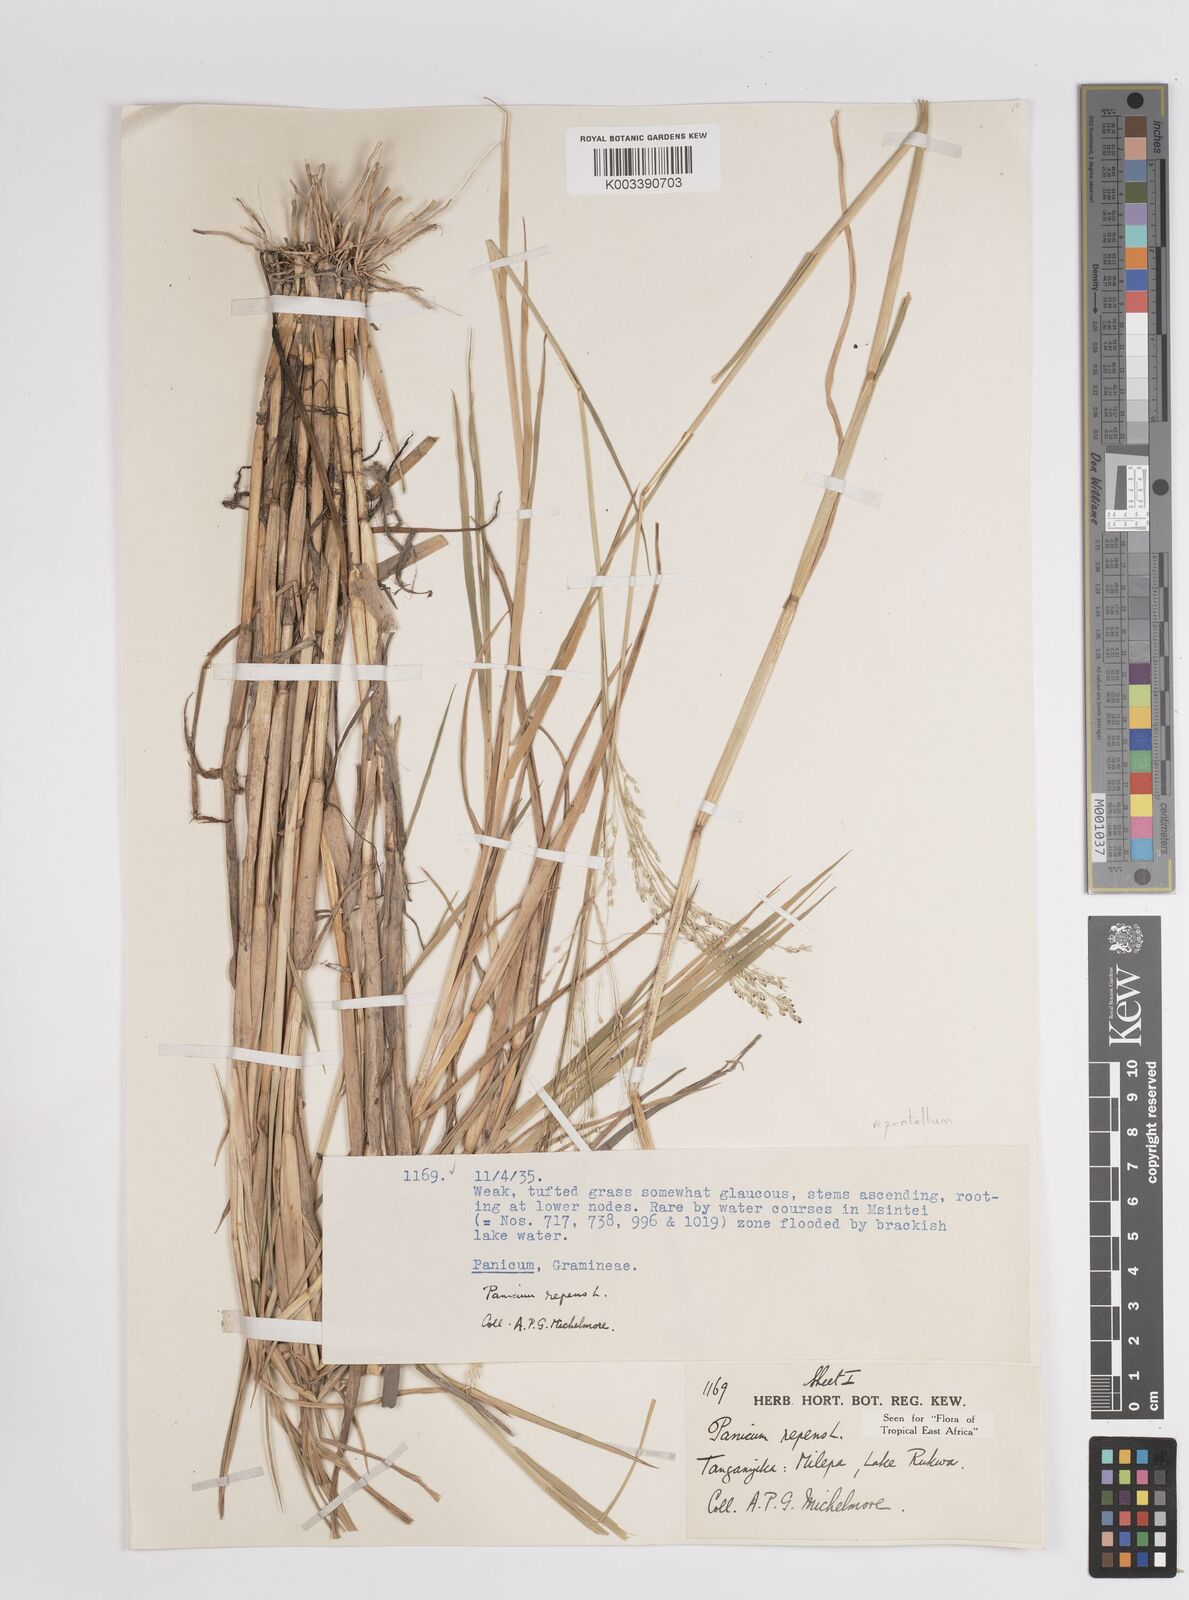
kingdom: Plantae
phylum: Tracheophyta
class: Liliopsida
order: Poales
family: Poaceae
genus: Panicum
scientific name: Panicum hygrocharis
